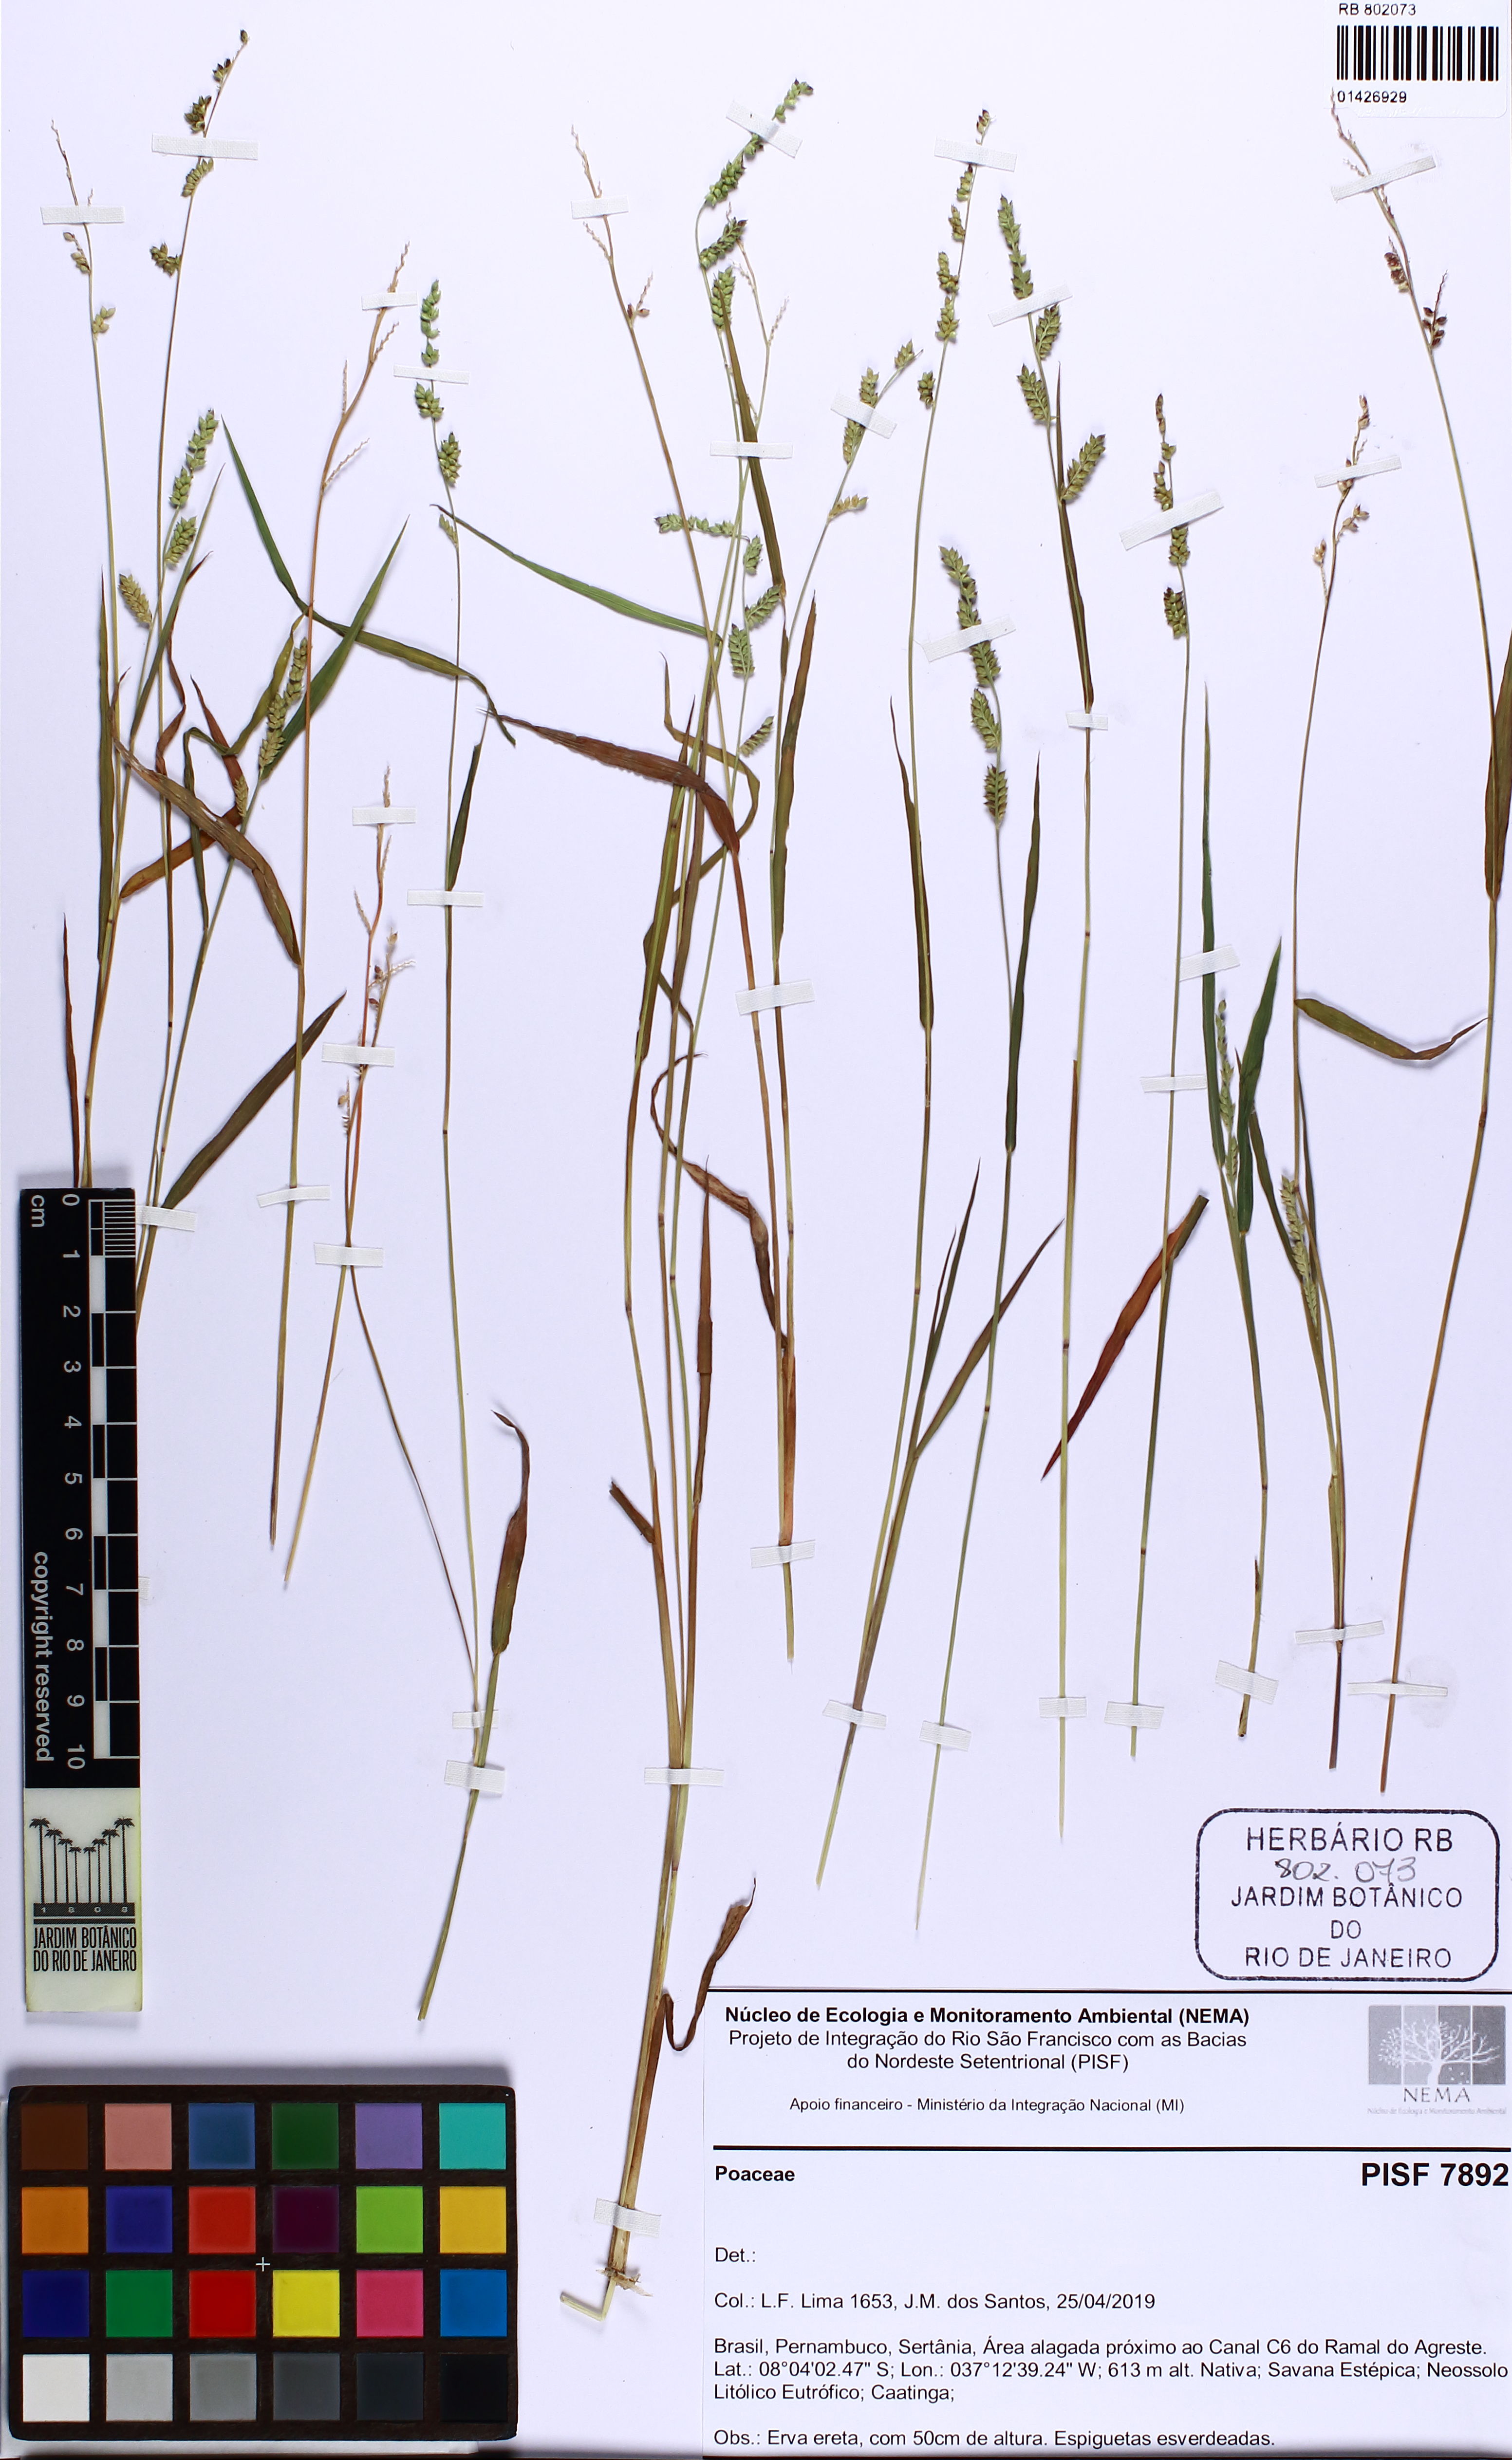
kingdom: Plantae
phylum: Tracheophyta
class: Liliopsida
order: Poales
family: Poaceae
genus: Echinochloa
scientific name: Echinochloa colonum
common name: Jungle rice
